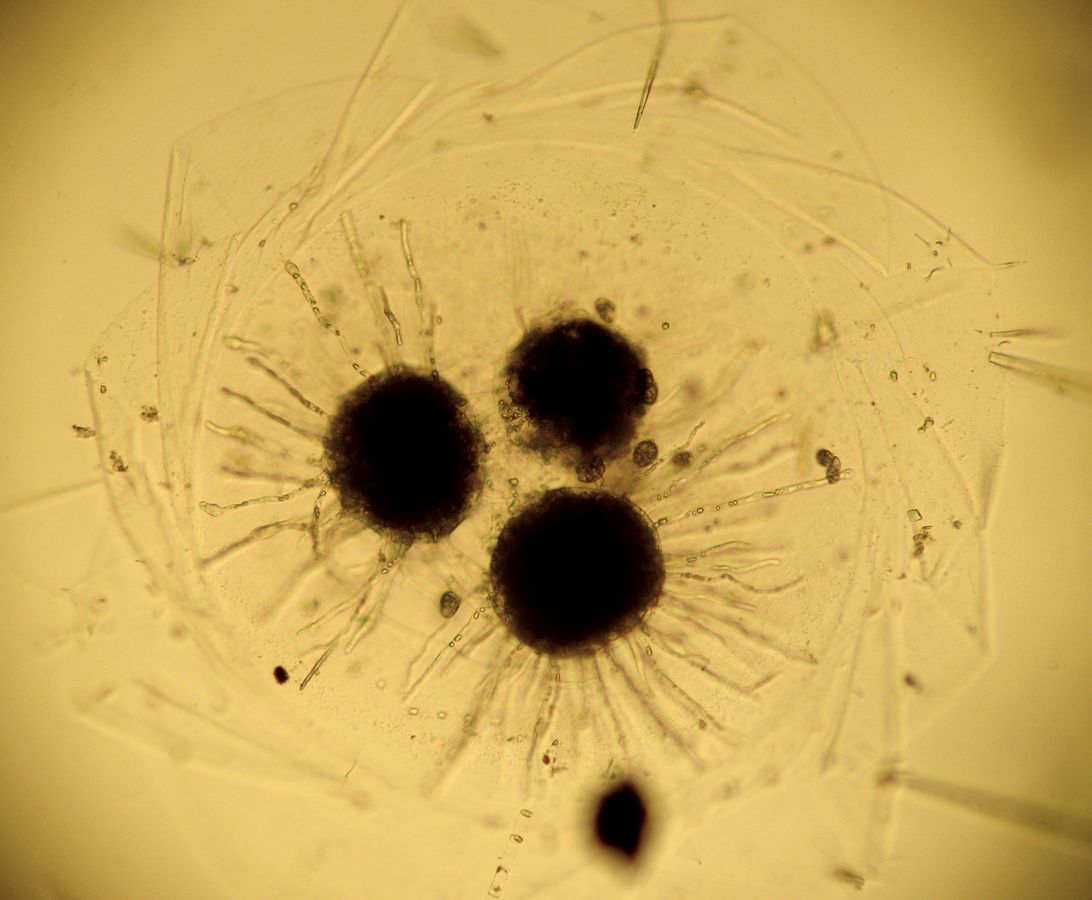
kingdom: Animalia
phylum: Mollusca
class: Gastropoda
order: Littorinimorpha
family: Littorinidae
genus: Littorina
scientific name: Littorina littorea
